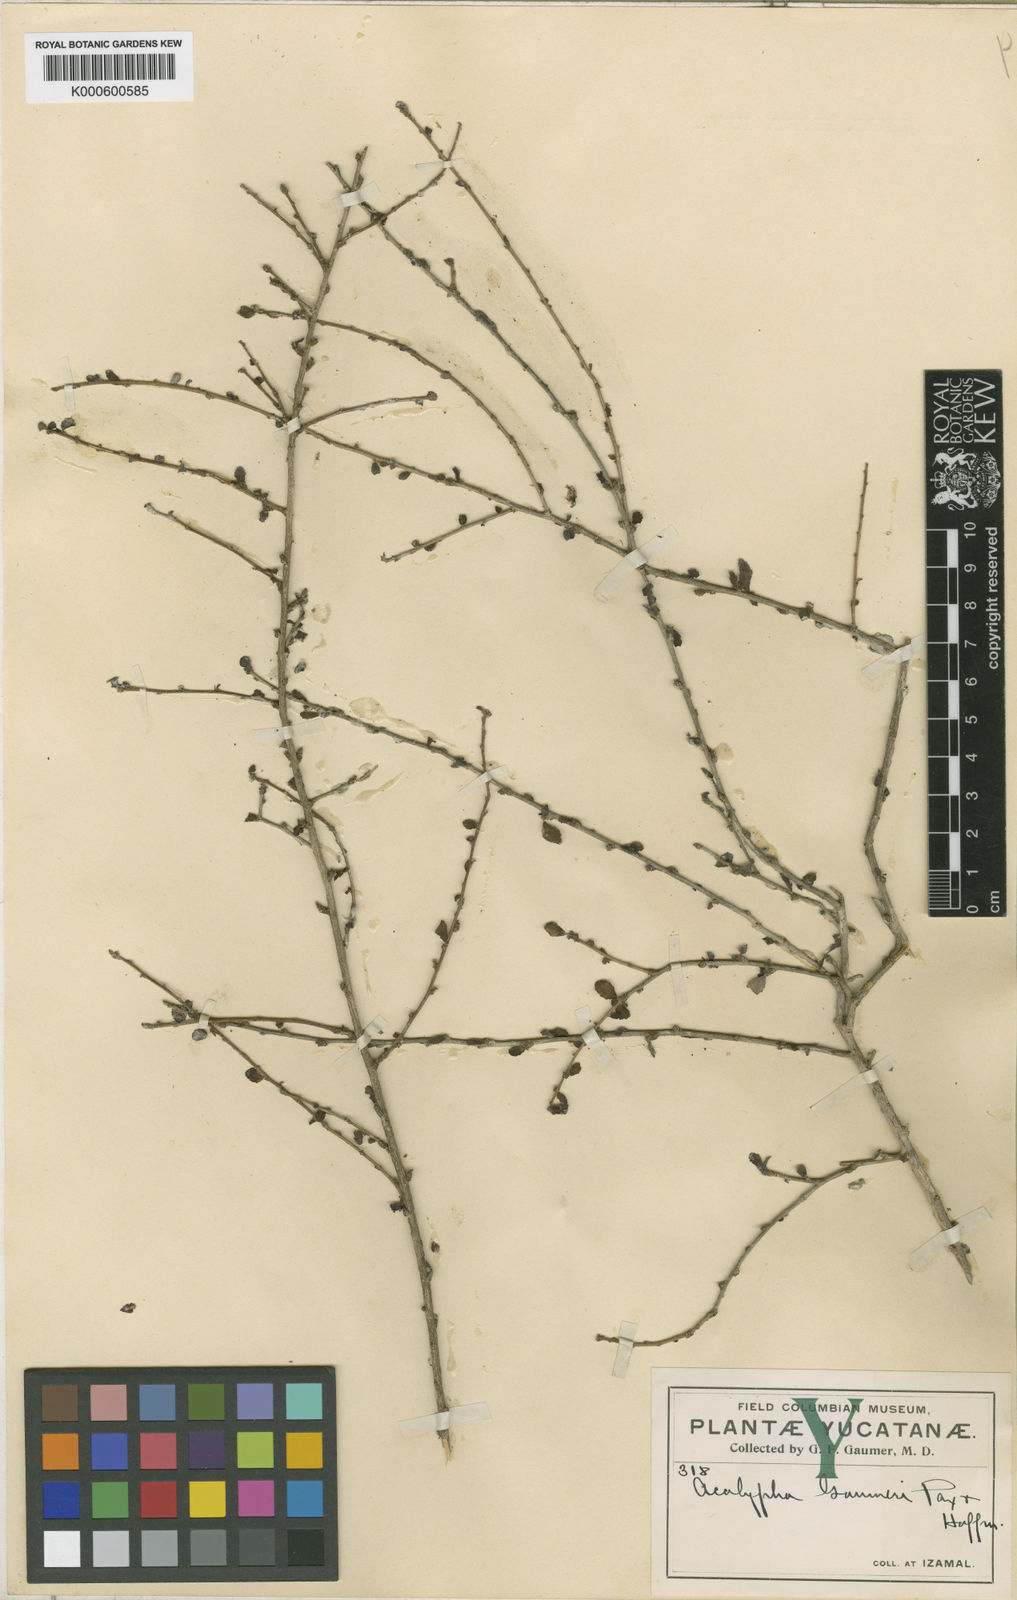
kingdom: Plantae
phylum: Tracheophyta
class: Magnoliopsida
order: Malpighiales
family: Euphorbiaceae
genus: Acalypha
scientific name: Acalypha gaumeri
